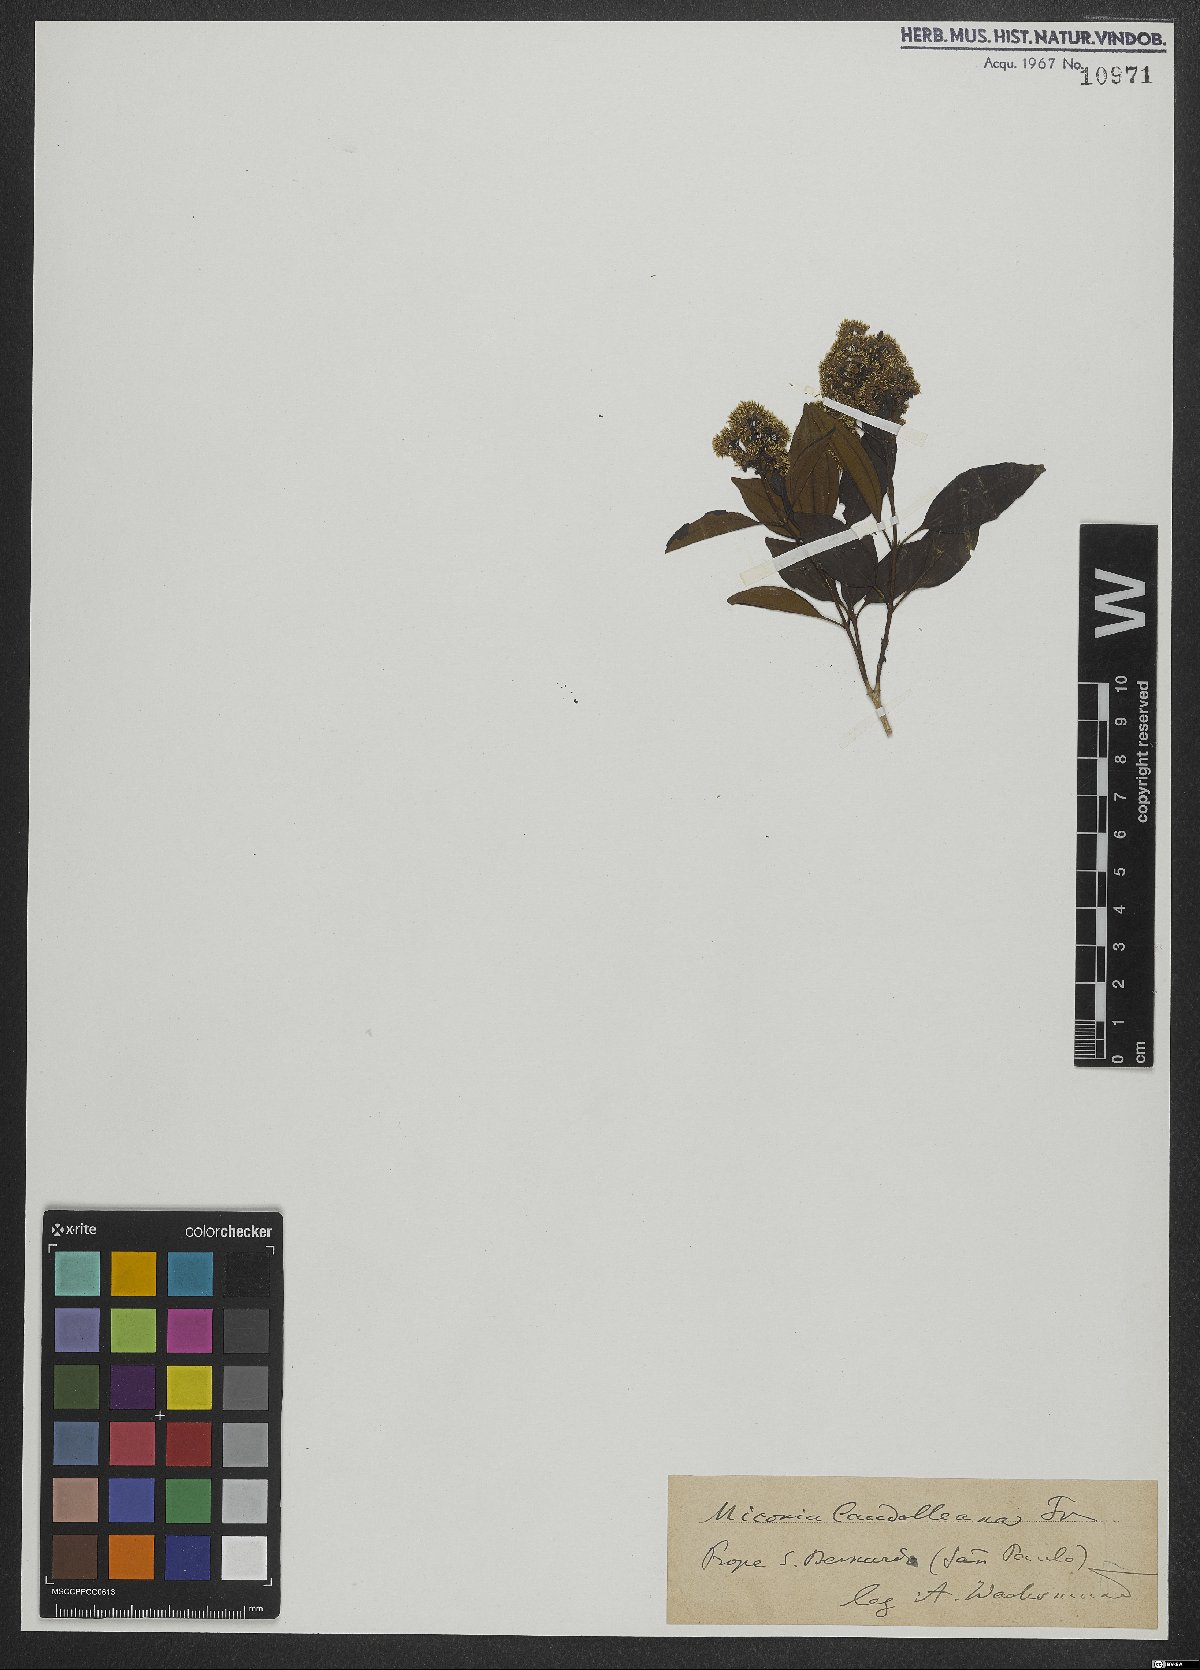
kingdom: Plantae
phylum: Tracheophyta
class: Magnoliopsida
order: Myrtales
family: Melastomataceae
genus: Miconia
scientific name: Miconia cinnamomifolia
